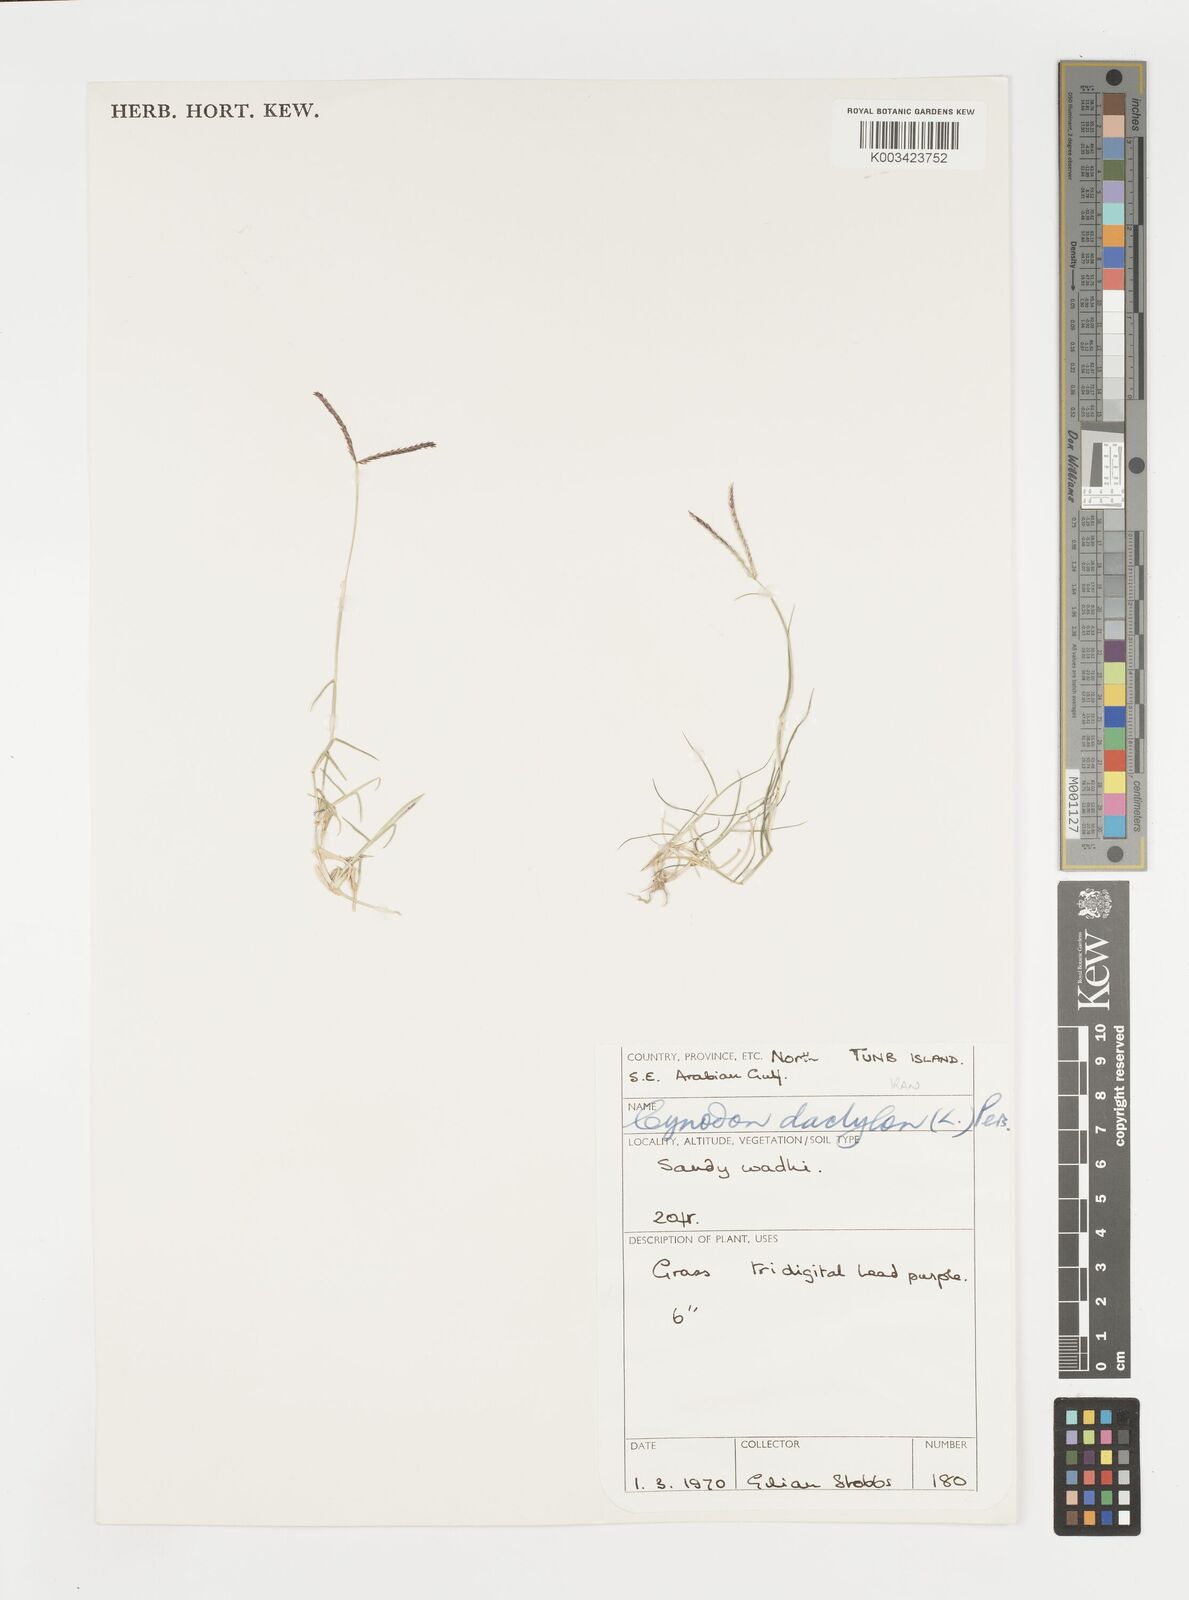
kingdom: Plantae
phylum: Tracheophyta
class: Liliopsida
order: Poales
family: Poaceae
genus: Cynodon
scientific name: Cynodon dactylon
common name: Bermuda grass
